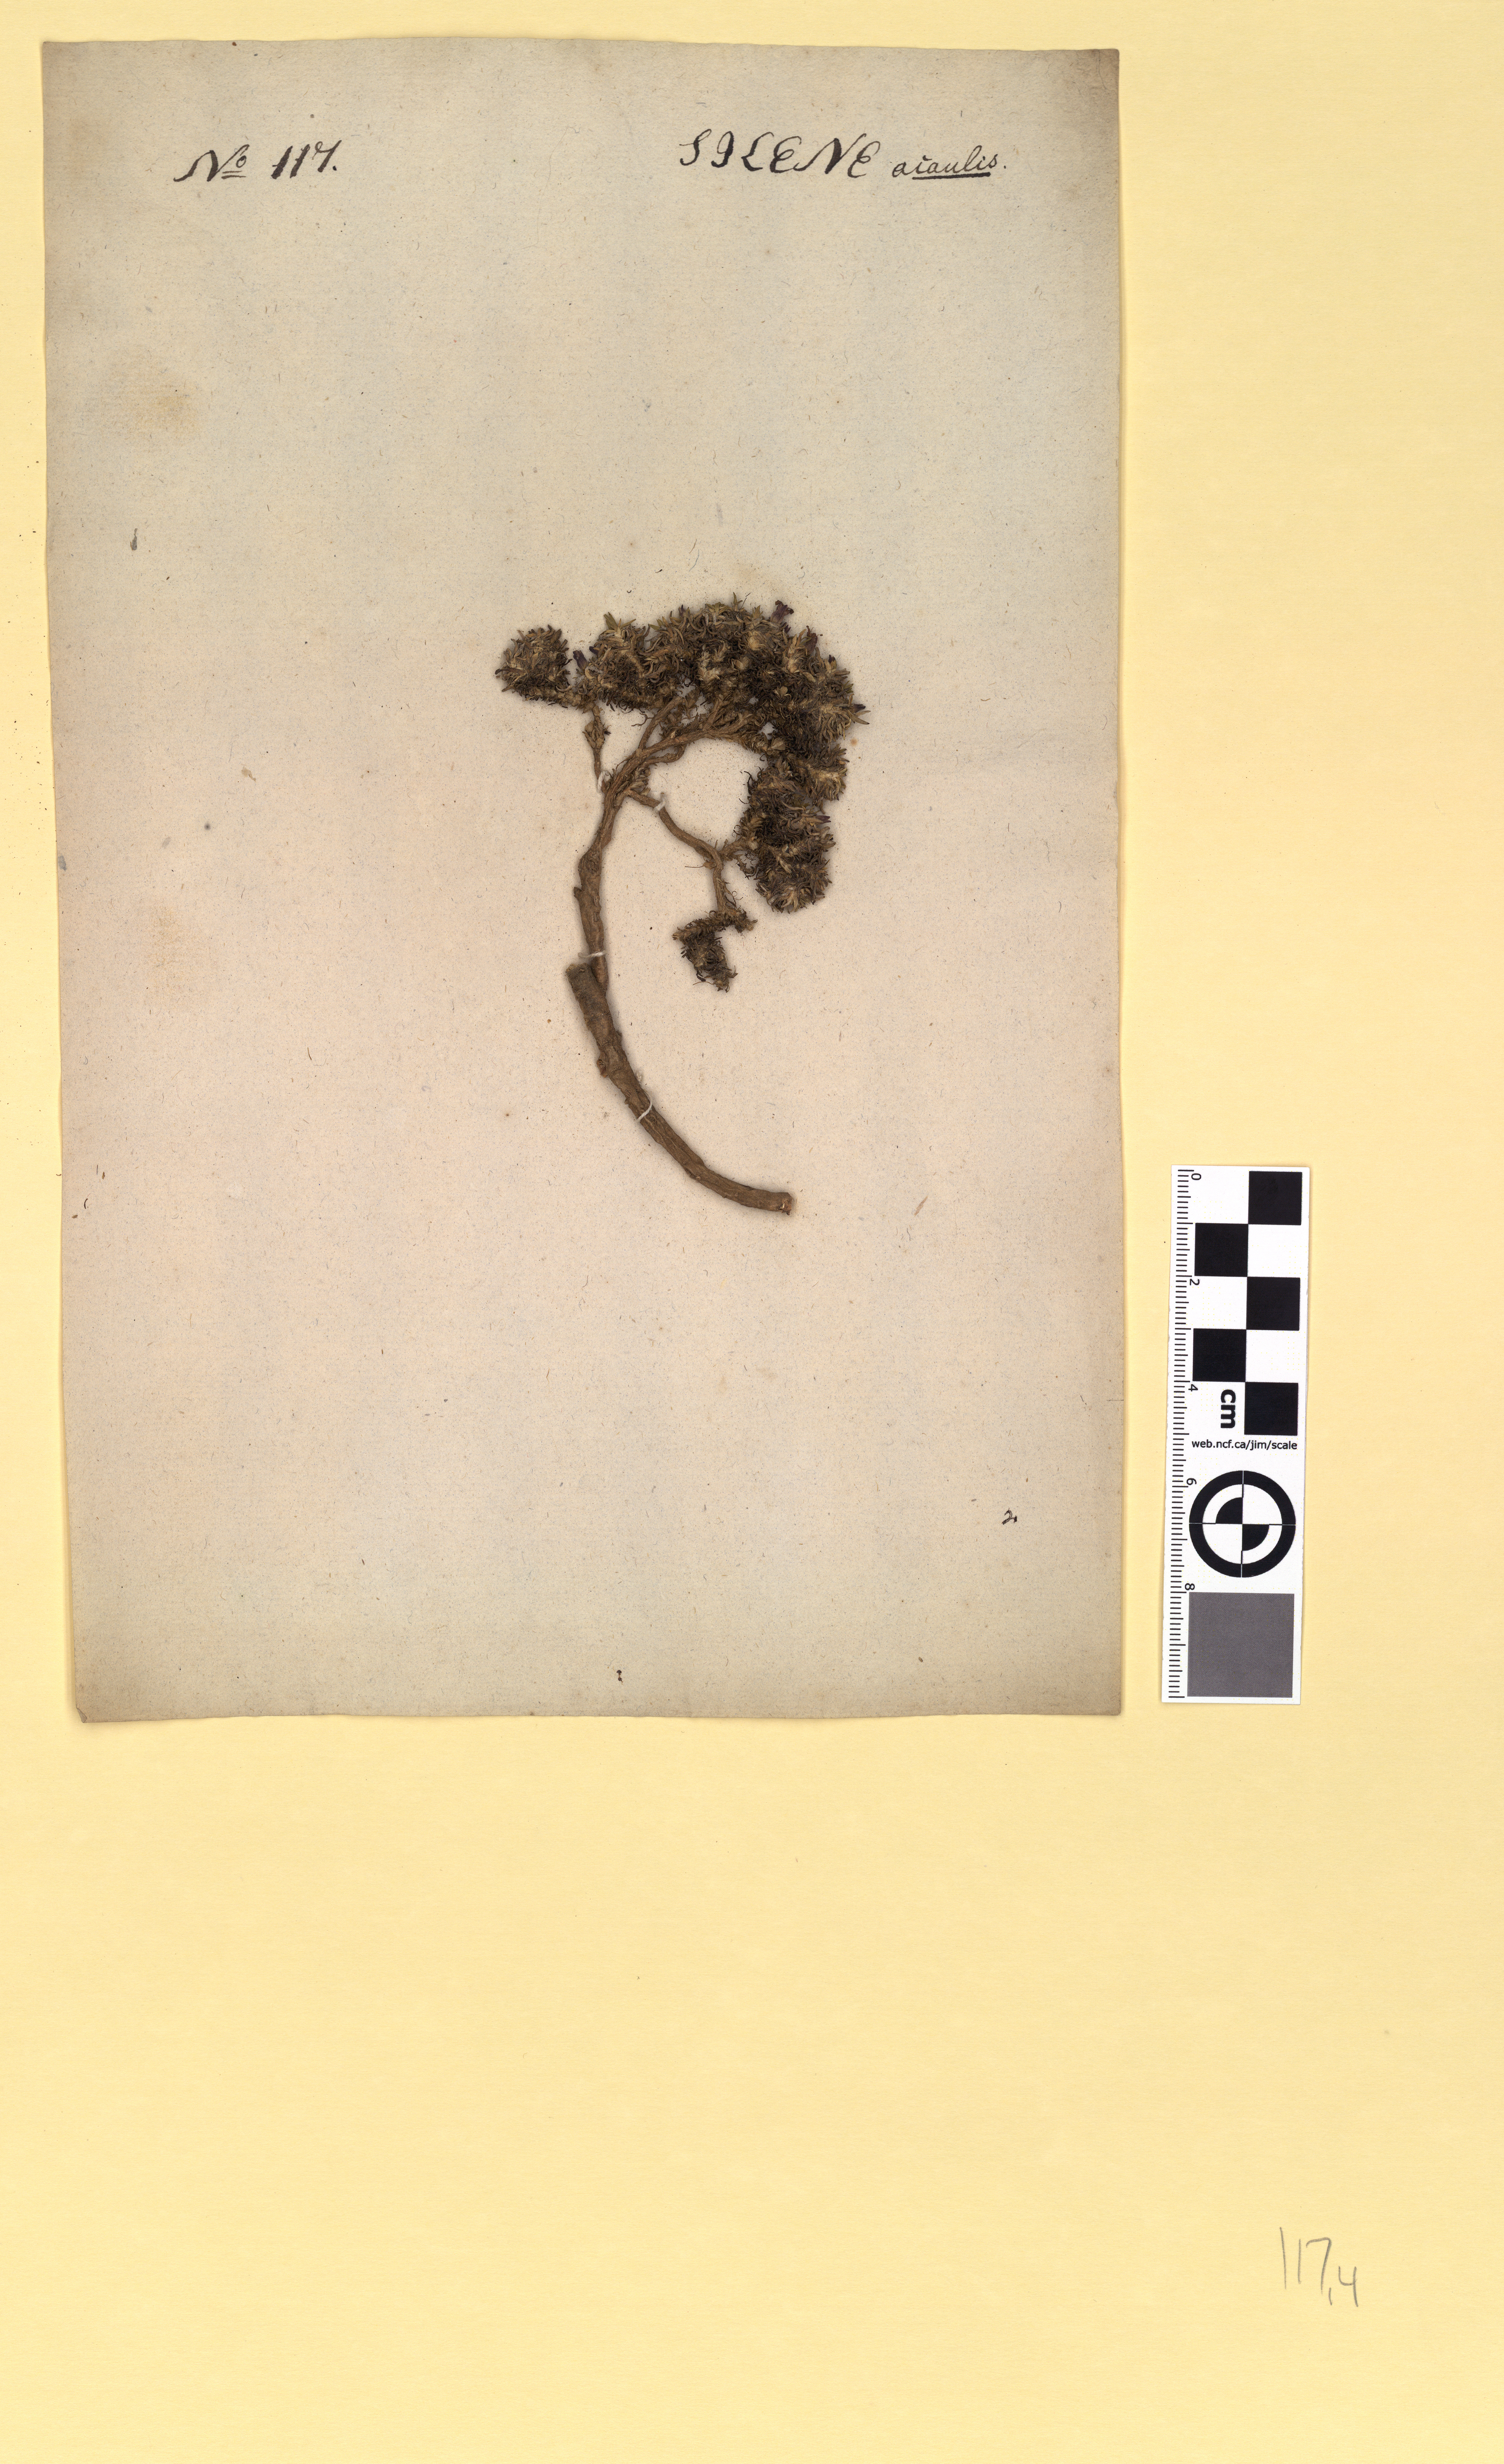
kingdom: Plantae
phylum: Tracheophyta
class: Magnoliopsida
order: Caryophyllales
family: Caryophyllaceae
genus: Silene
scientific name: Silene acaulis
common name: Moss campion
